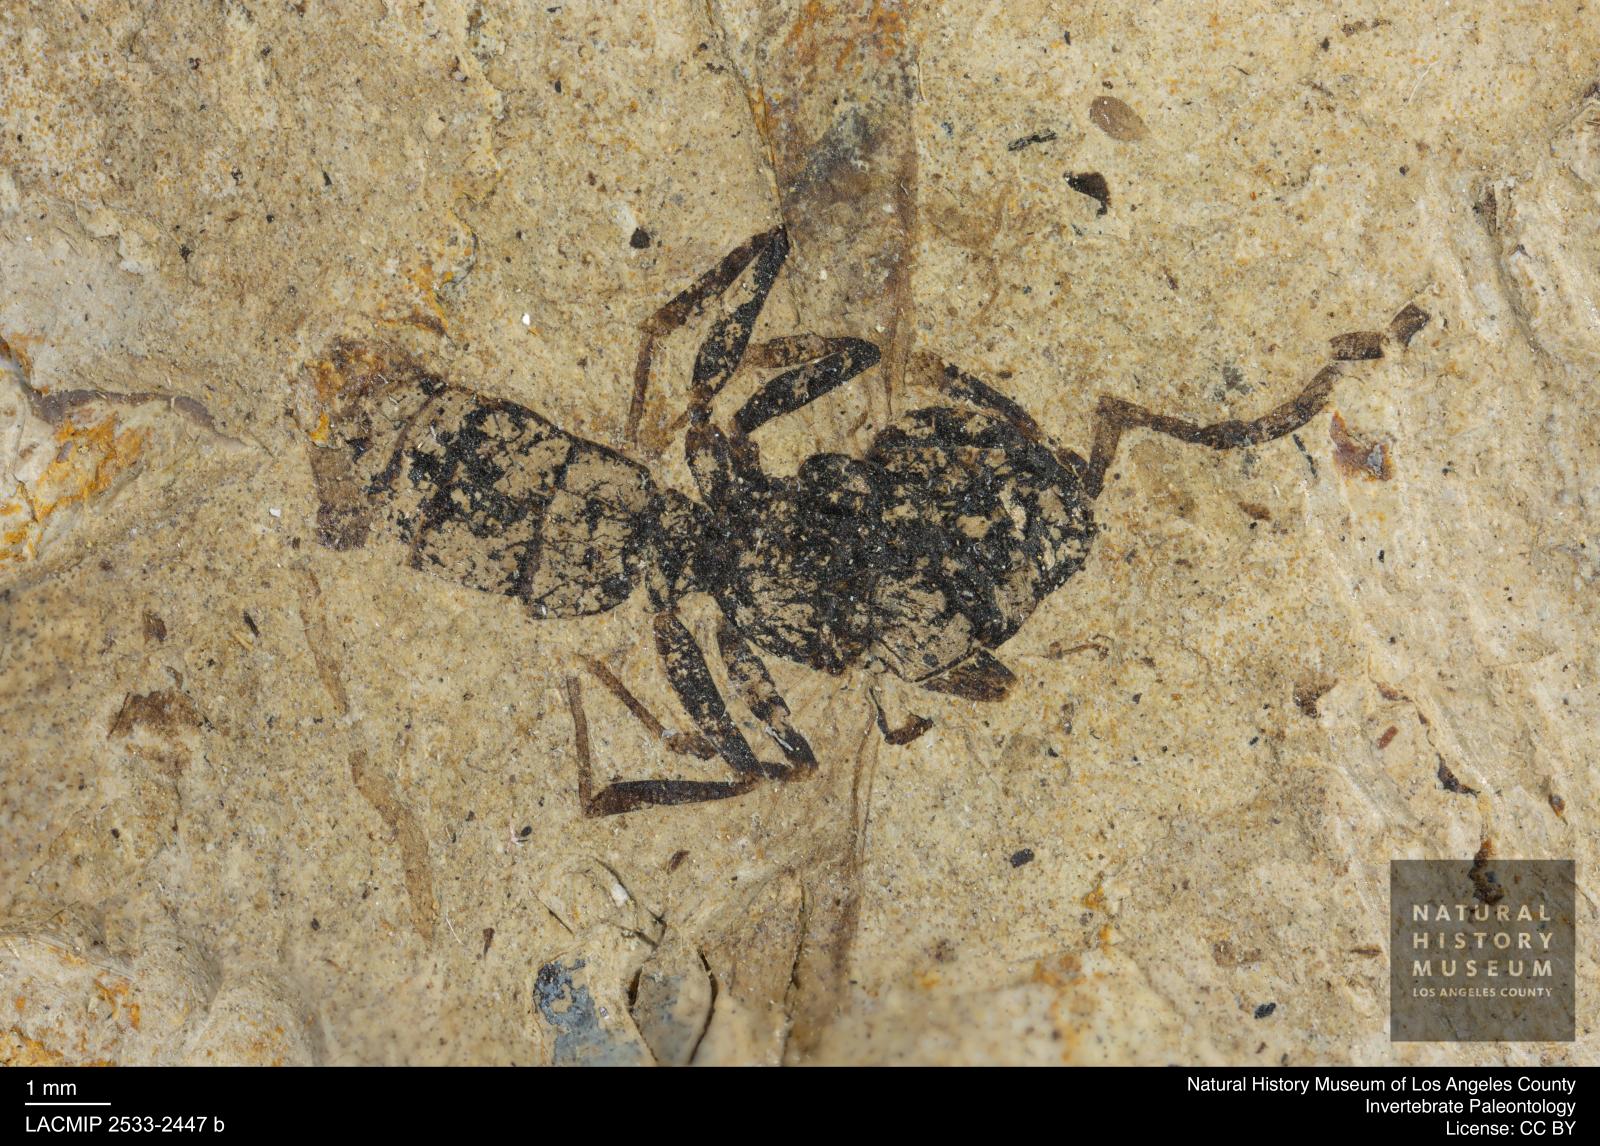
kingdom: Animalia
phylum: Arthropoda
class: Insecta
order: Hymenoptera
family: Formicidae
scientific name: Formicidae
